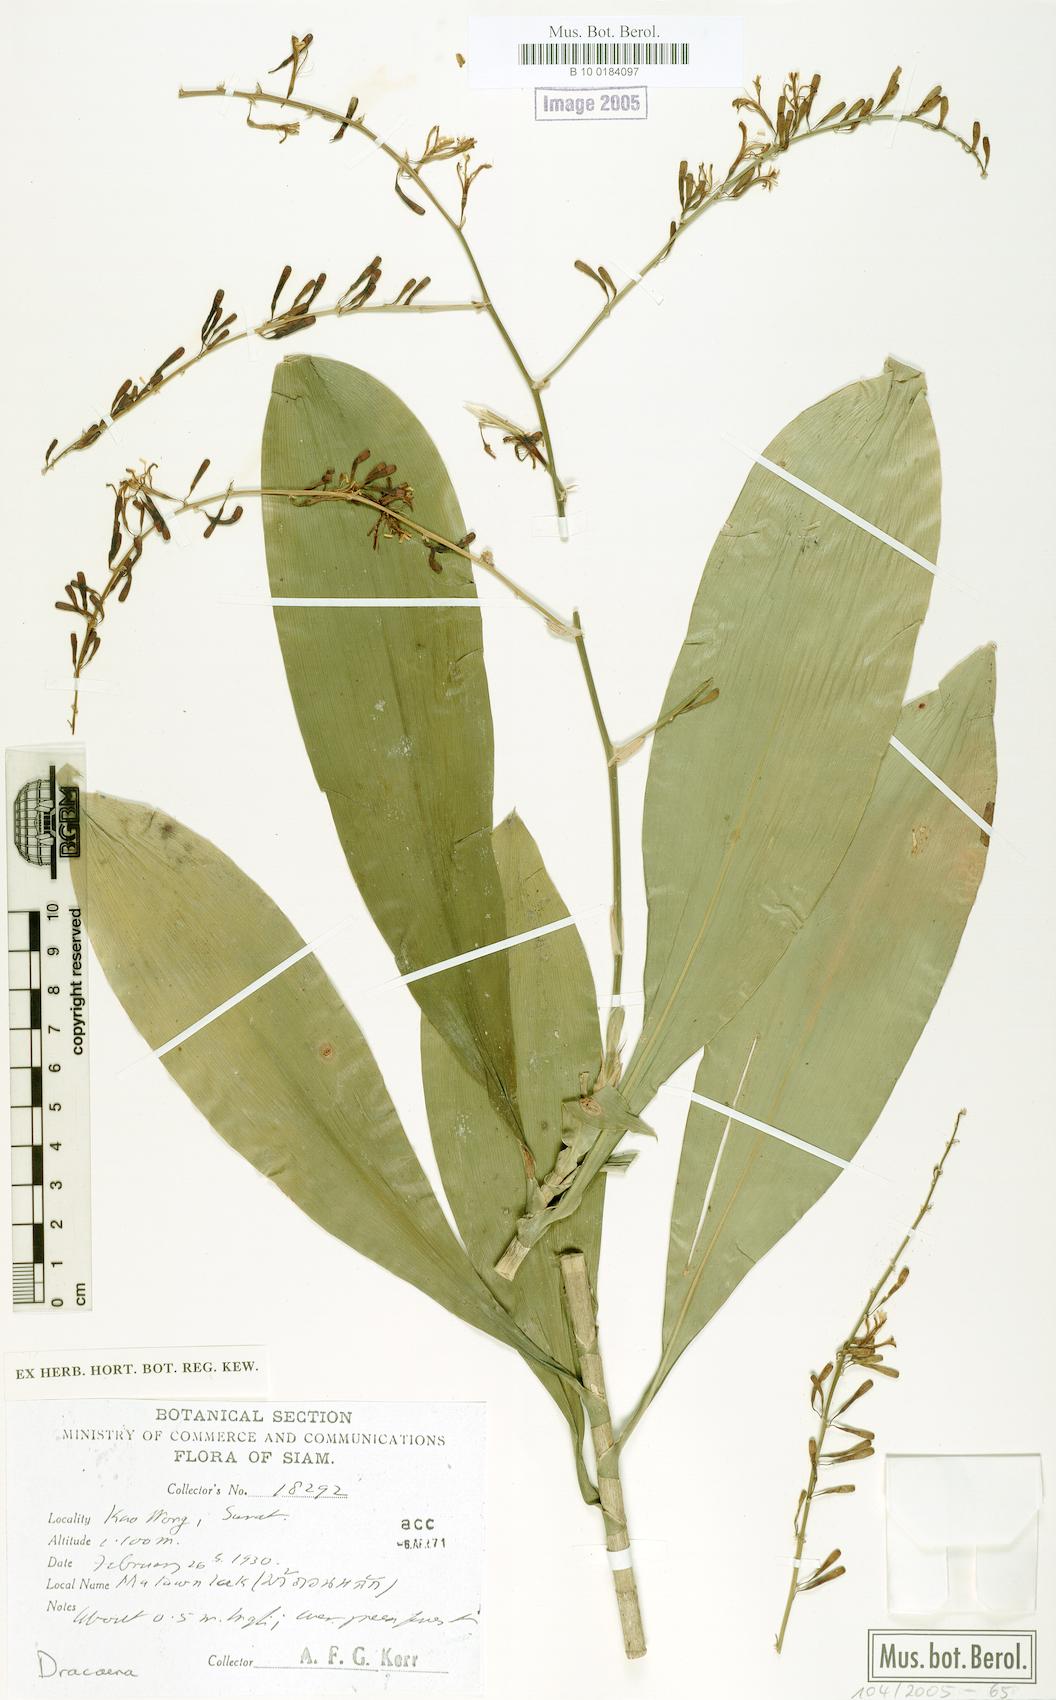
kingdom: Plantae
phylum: Tracheophyta
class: Liliopsida
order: Asparagales
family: Asparagaceae
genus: Dracaena
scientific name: Dracaena
